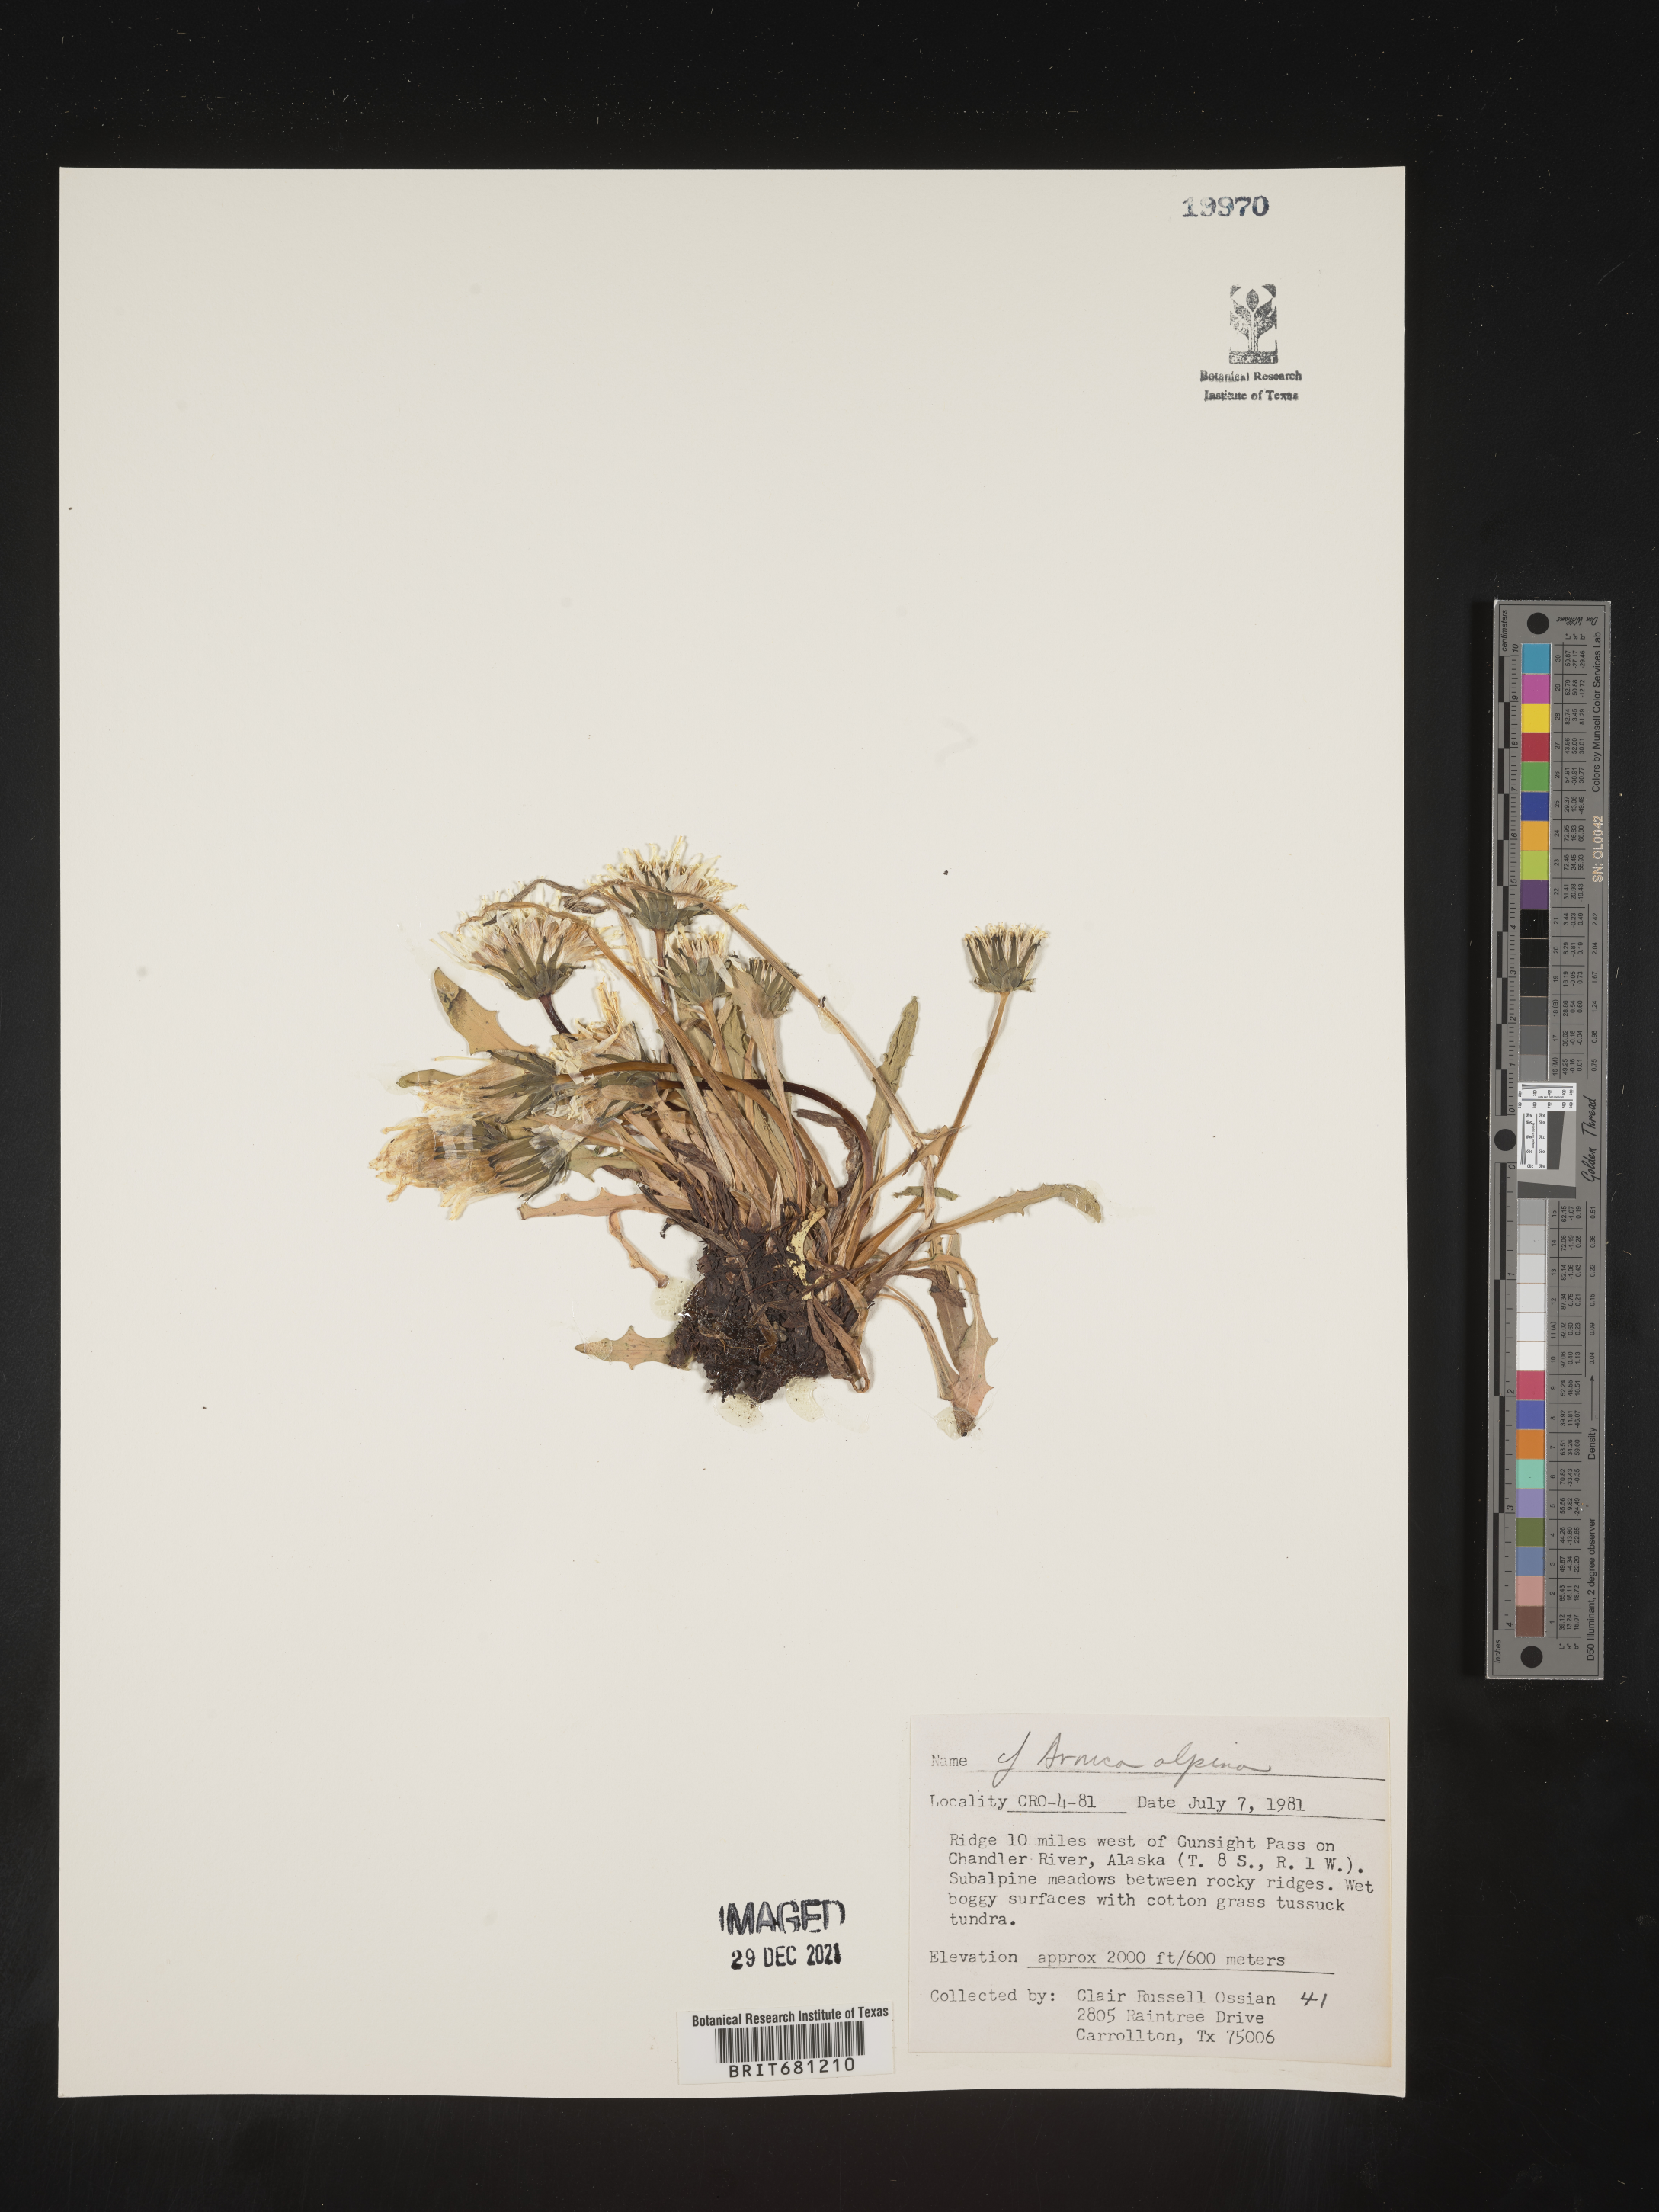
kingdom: Plantae
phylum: Tracheophyta
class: Magnoliopsida
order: Asterales
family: Asteraceae
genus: Arnica
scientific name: Arnica angustifolia
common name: Arctic arnica
